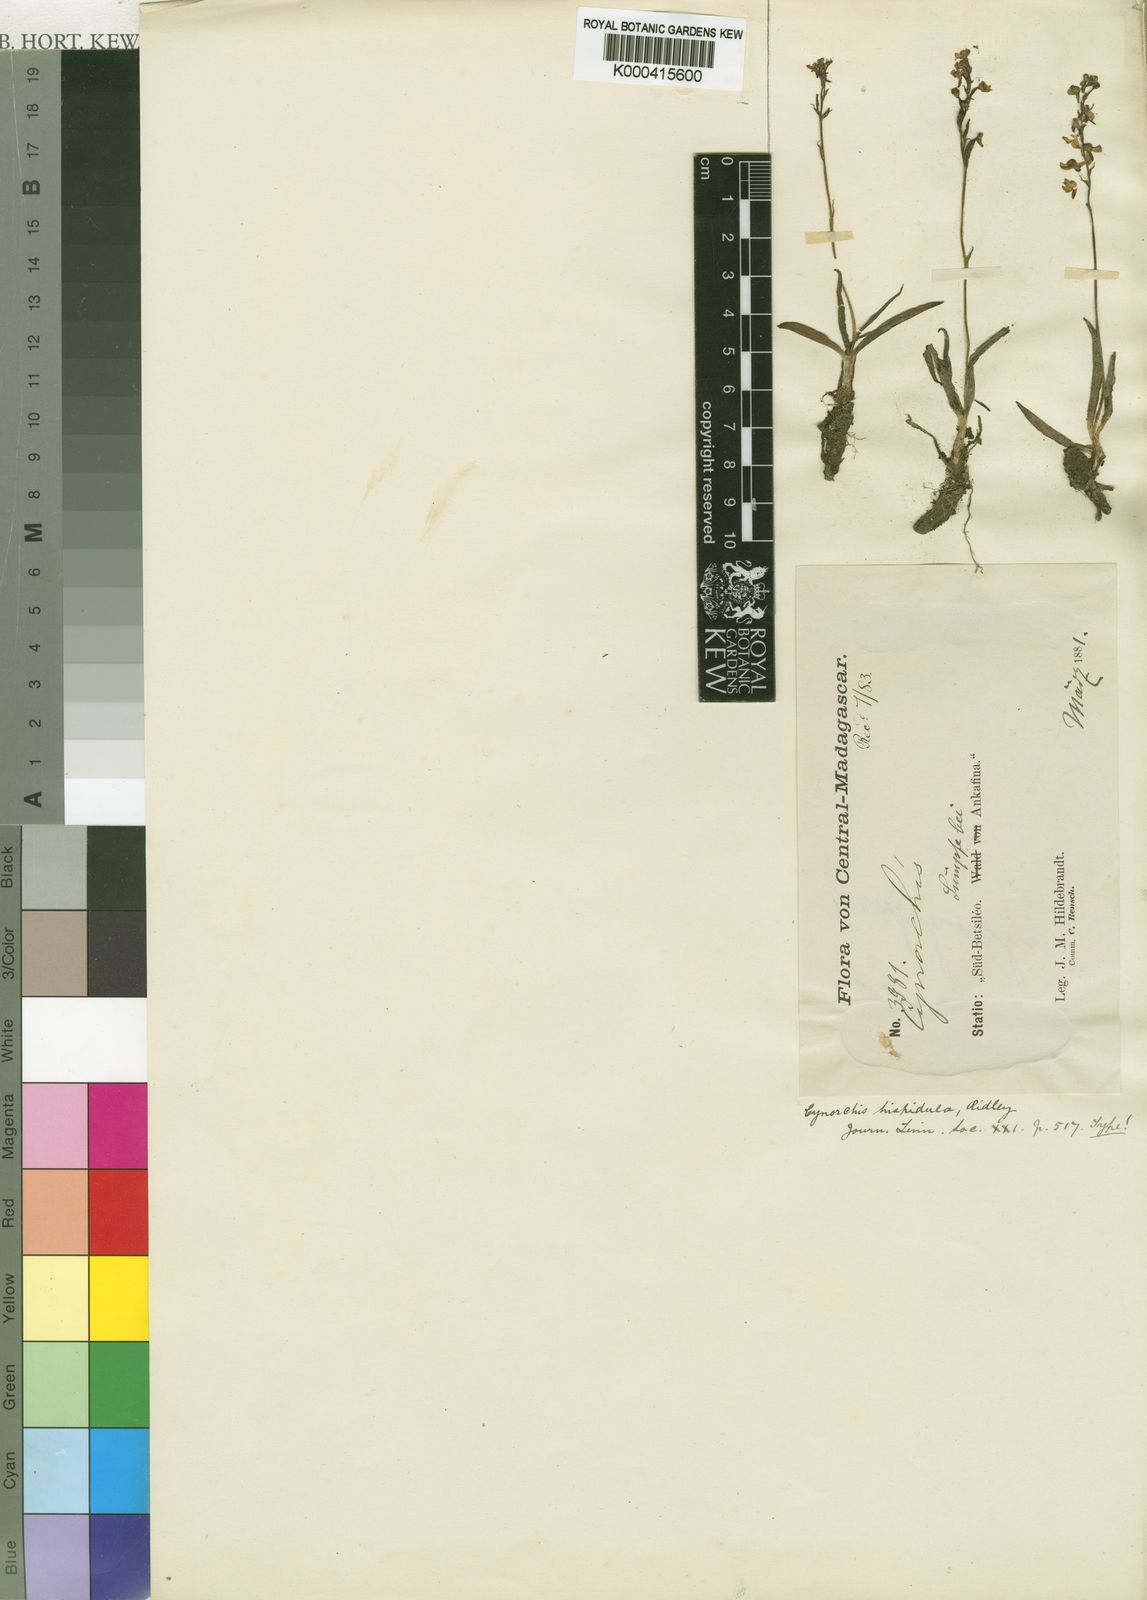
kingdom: Plantae
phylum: Tracheophyta
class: Liliopsida
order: Asparagales
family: Orchidaceae
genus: Cynorkis
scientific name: Cynorkis hispidula
